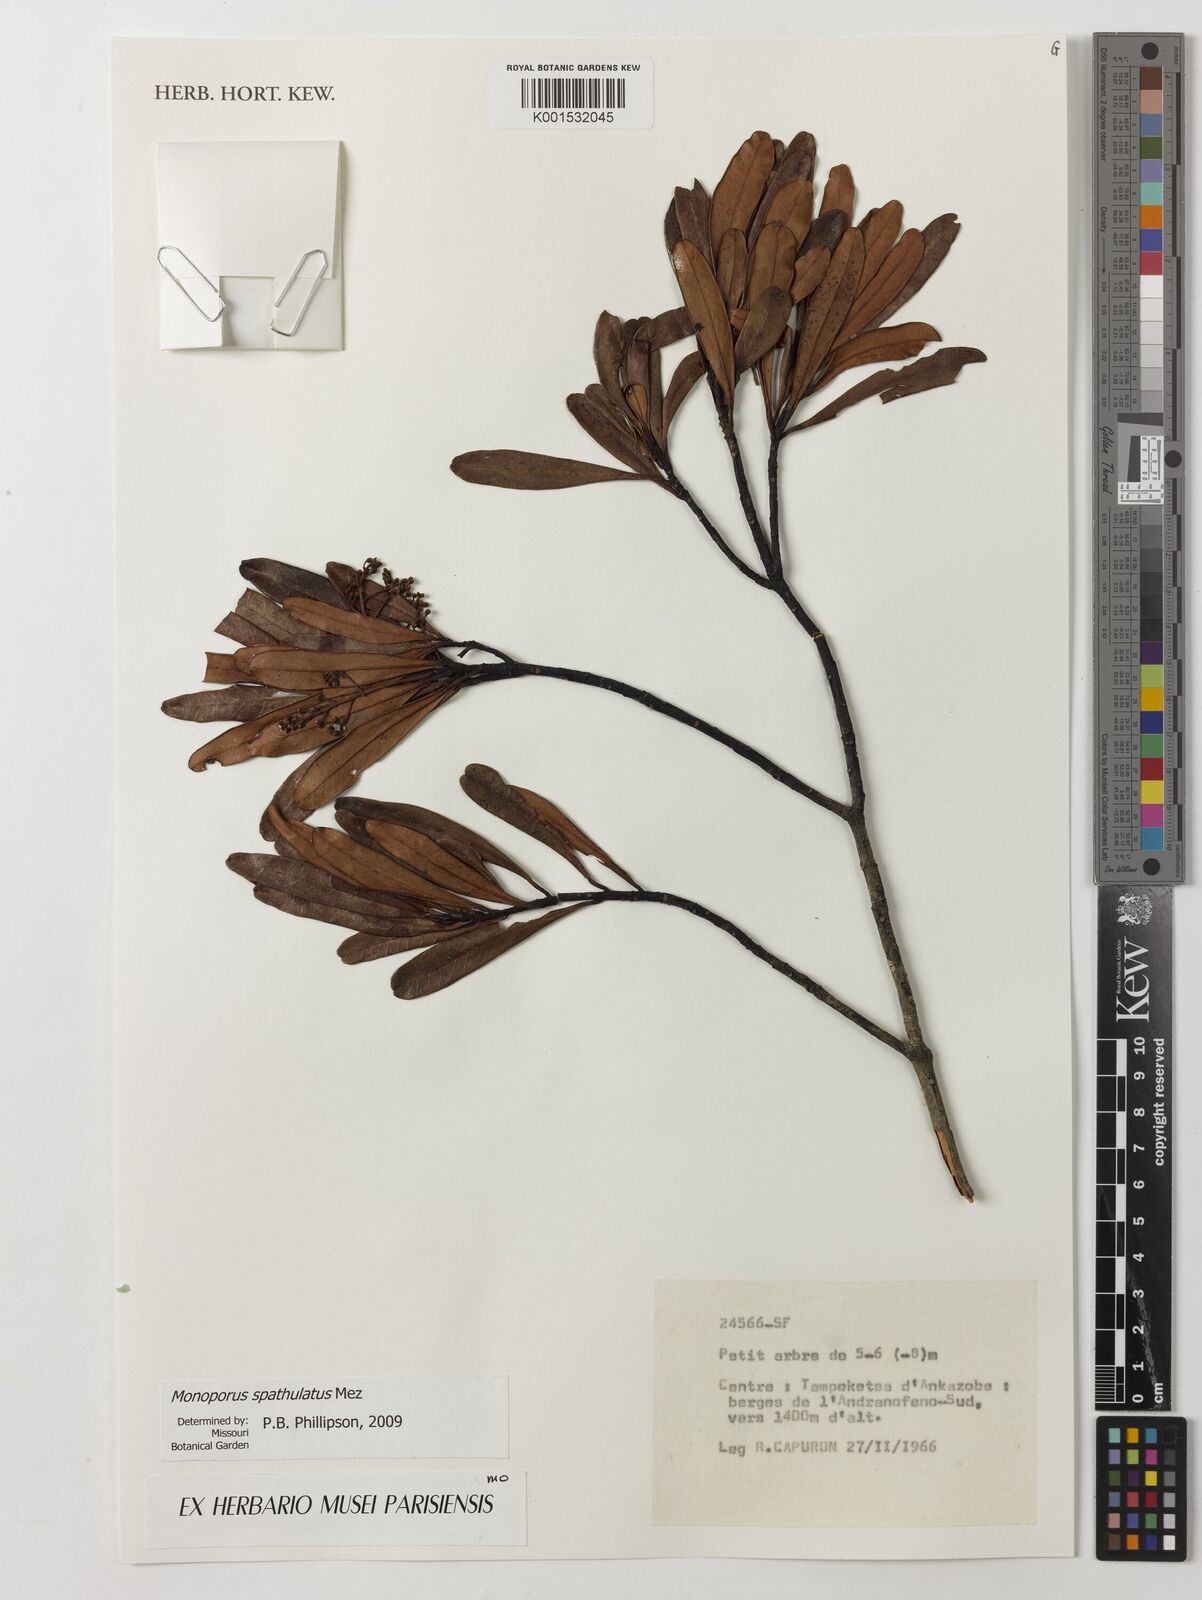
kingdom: Plantae
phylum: Tracheophyta
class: Magnoliopsida
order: Ericales
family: Primulaceae
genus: Monoporus
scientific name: Monoporus spathulatus
